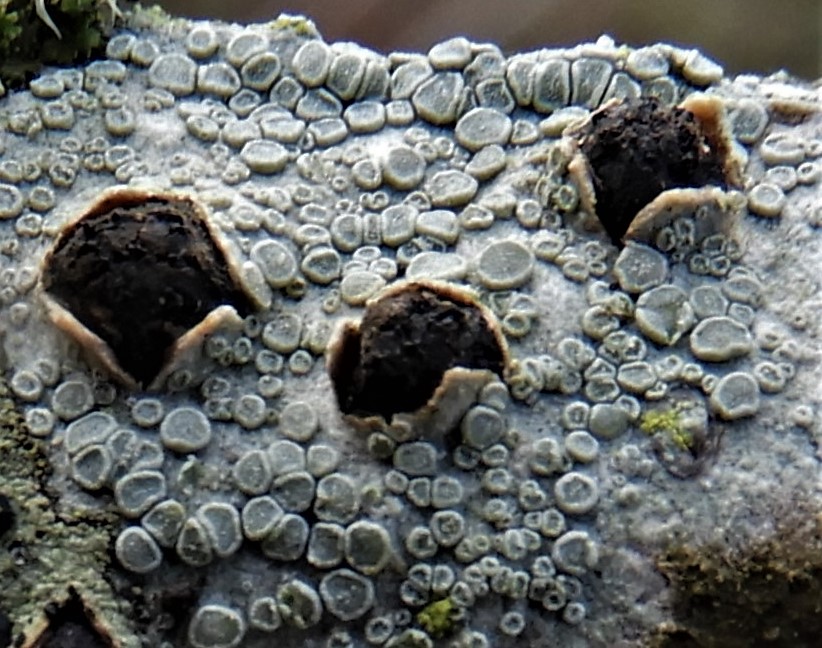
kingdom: Fungi
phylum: Ascomycota
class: Sordariomycetes
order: Xylariales
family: Diatrypaceae
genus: Diatrypella
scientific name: Diatrypella quercina
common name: ege-kulskorpe
